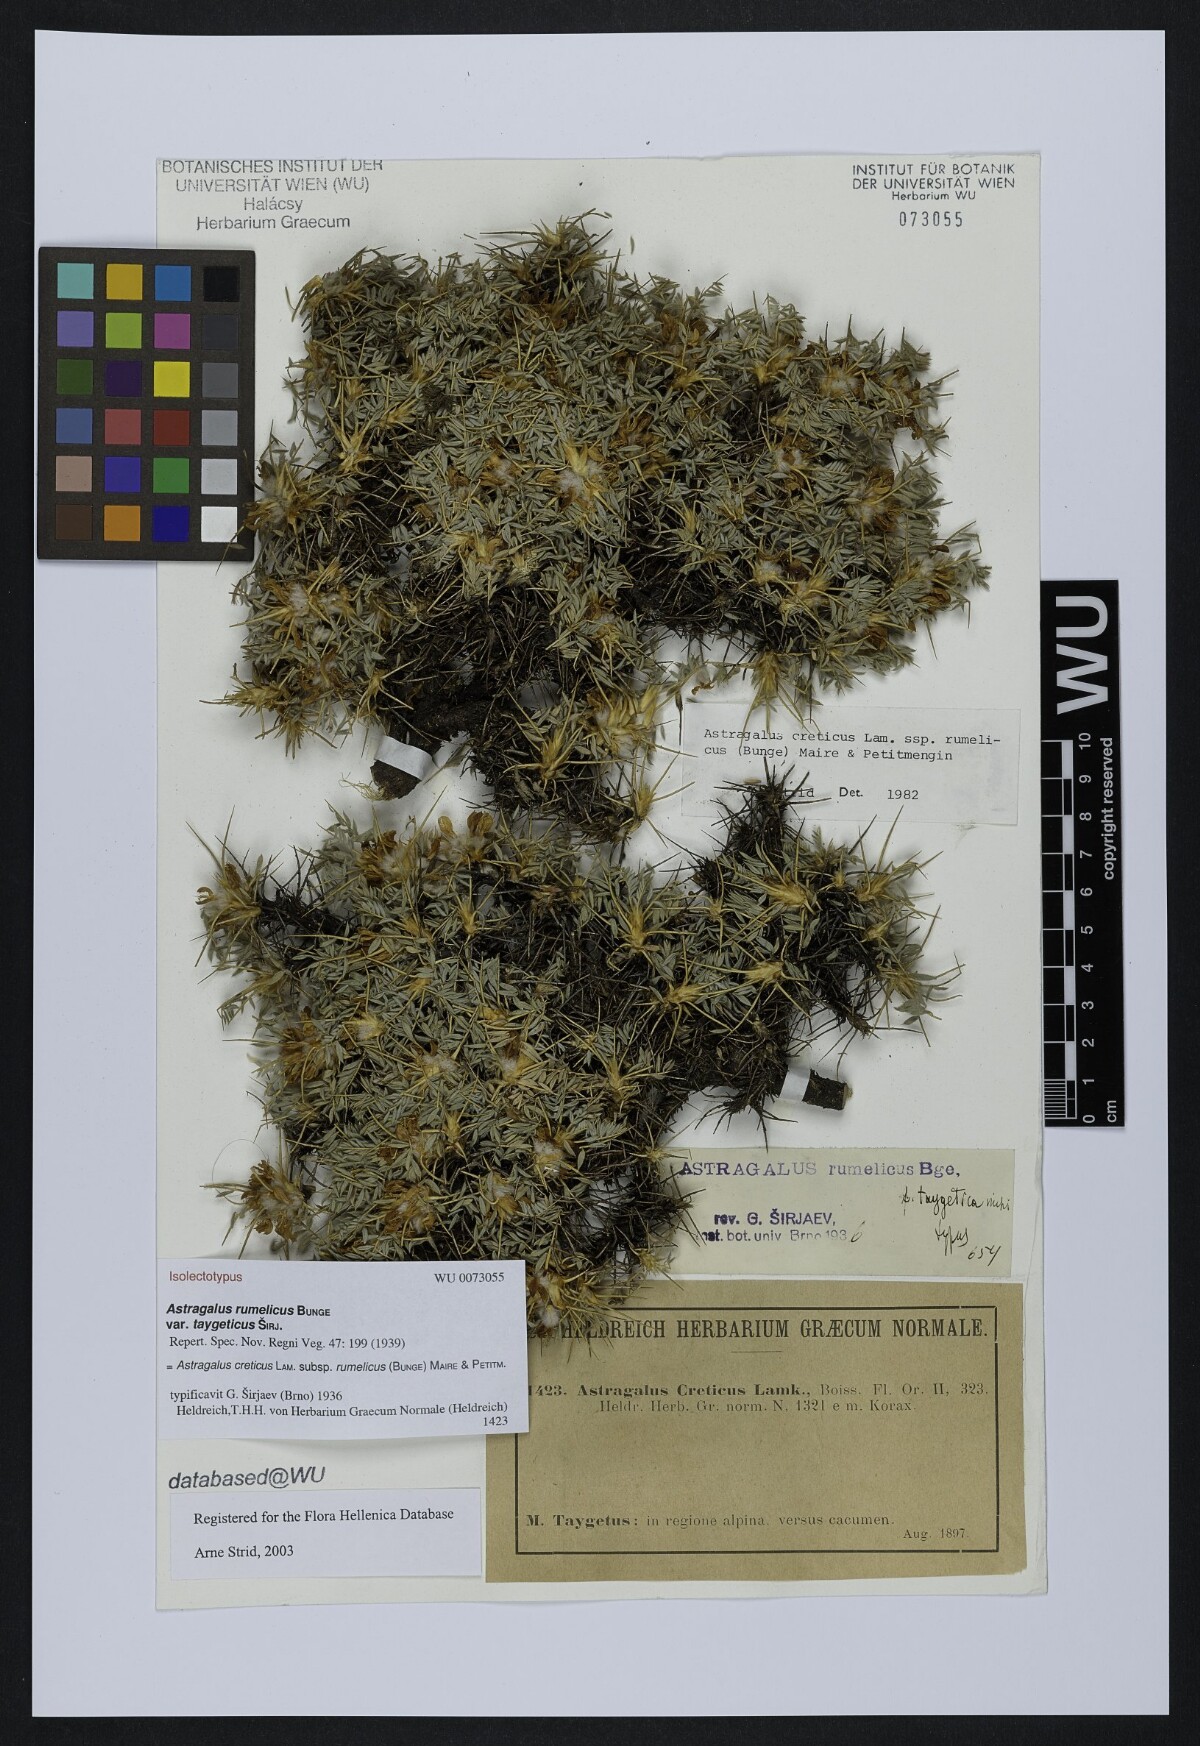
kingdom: Plantae
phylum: Tracheophyta
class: Magnoliopsida
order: Fabales
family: Fabaceae
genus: Astragalus
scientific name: Astragalus rumelicus
